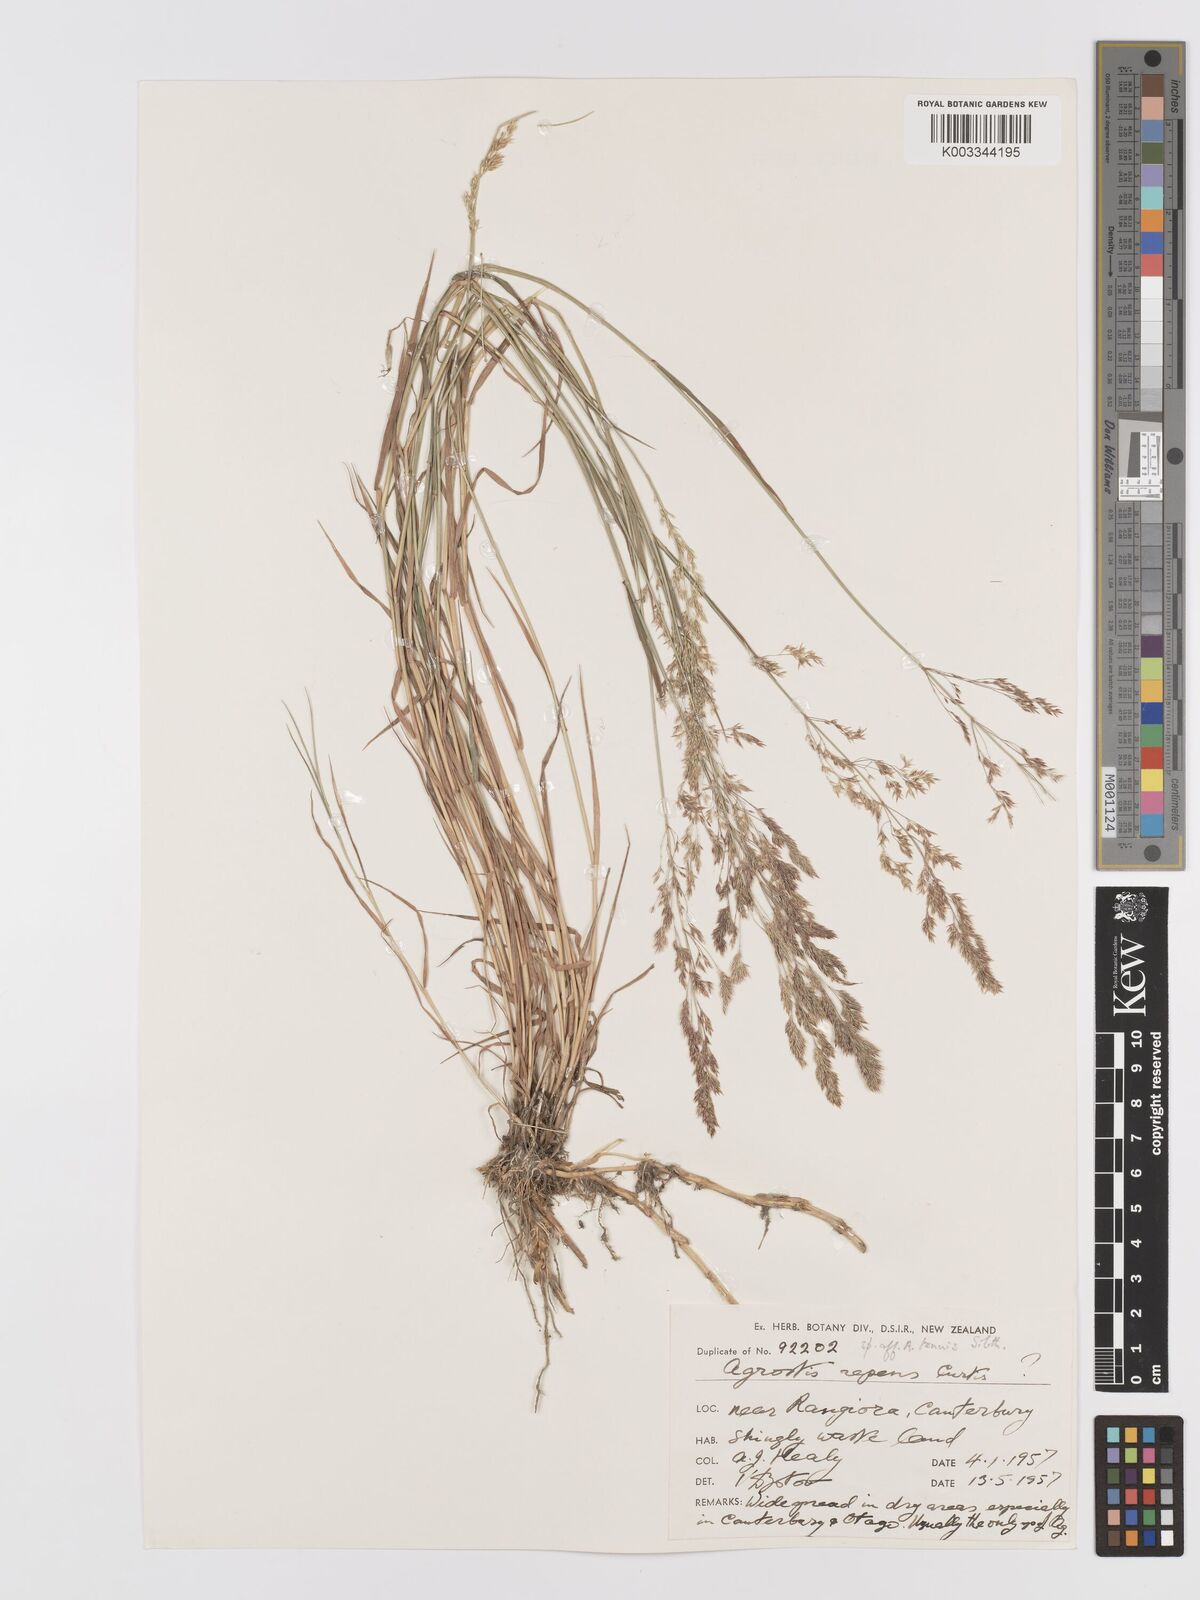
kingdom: Plantae
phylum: Tracheophyta
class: Liliopsida
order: Poales
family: Poaceae
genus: Agrostis
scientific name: Agrostis
